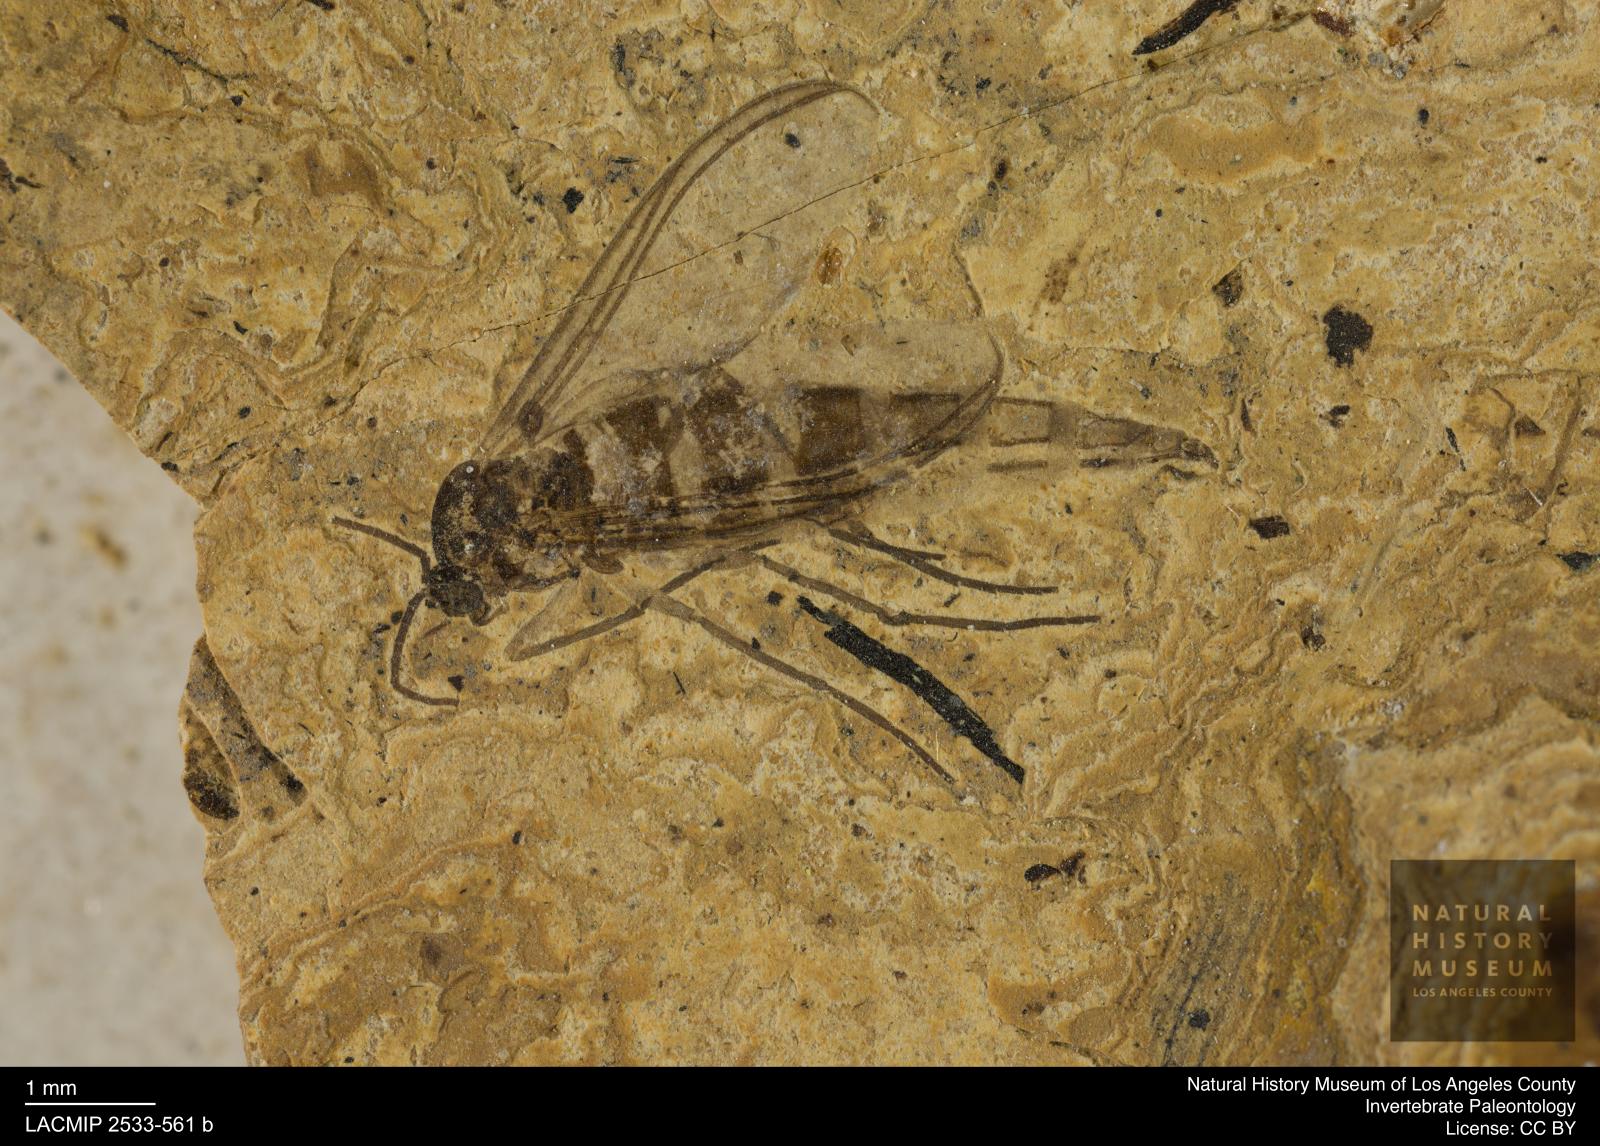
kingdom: Animalia
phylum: Arthropoda
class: Insecta
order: Diptera
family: Sciaridae
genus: Sciara
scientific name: Sciara aulica
